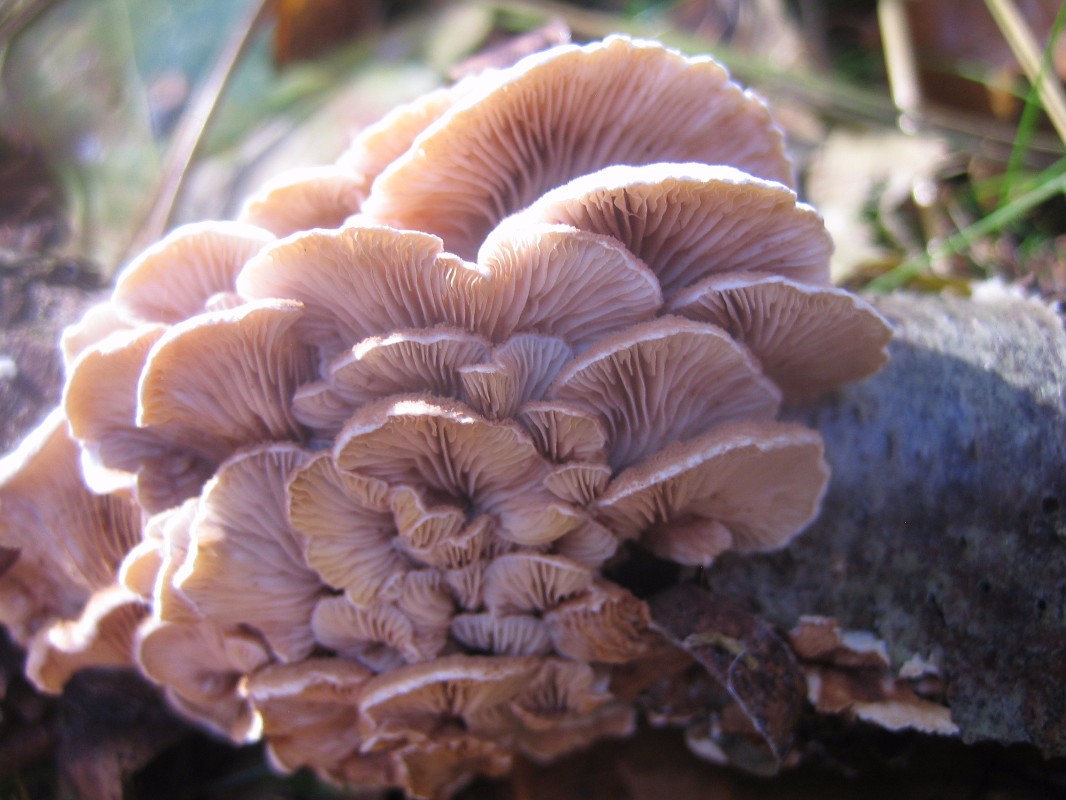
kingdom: Fungi
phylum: Basidiomycota
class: Agaricomycetes
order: Agaricales
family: Crepidotaceae
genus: Crepidotus
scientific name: Crepidotus variabilis
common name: forskelligformet muslingesvamp
